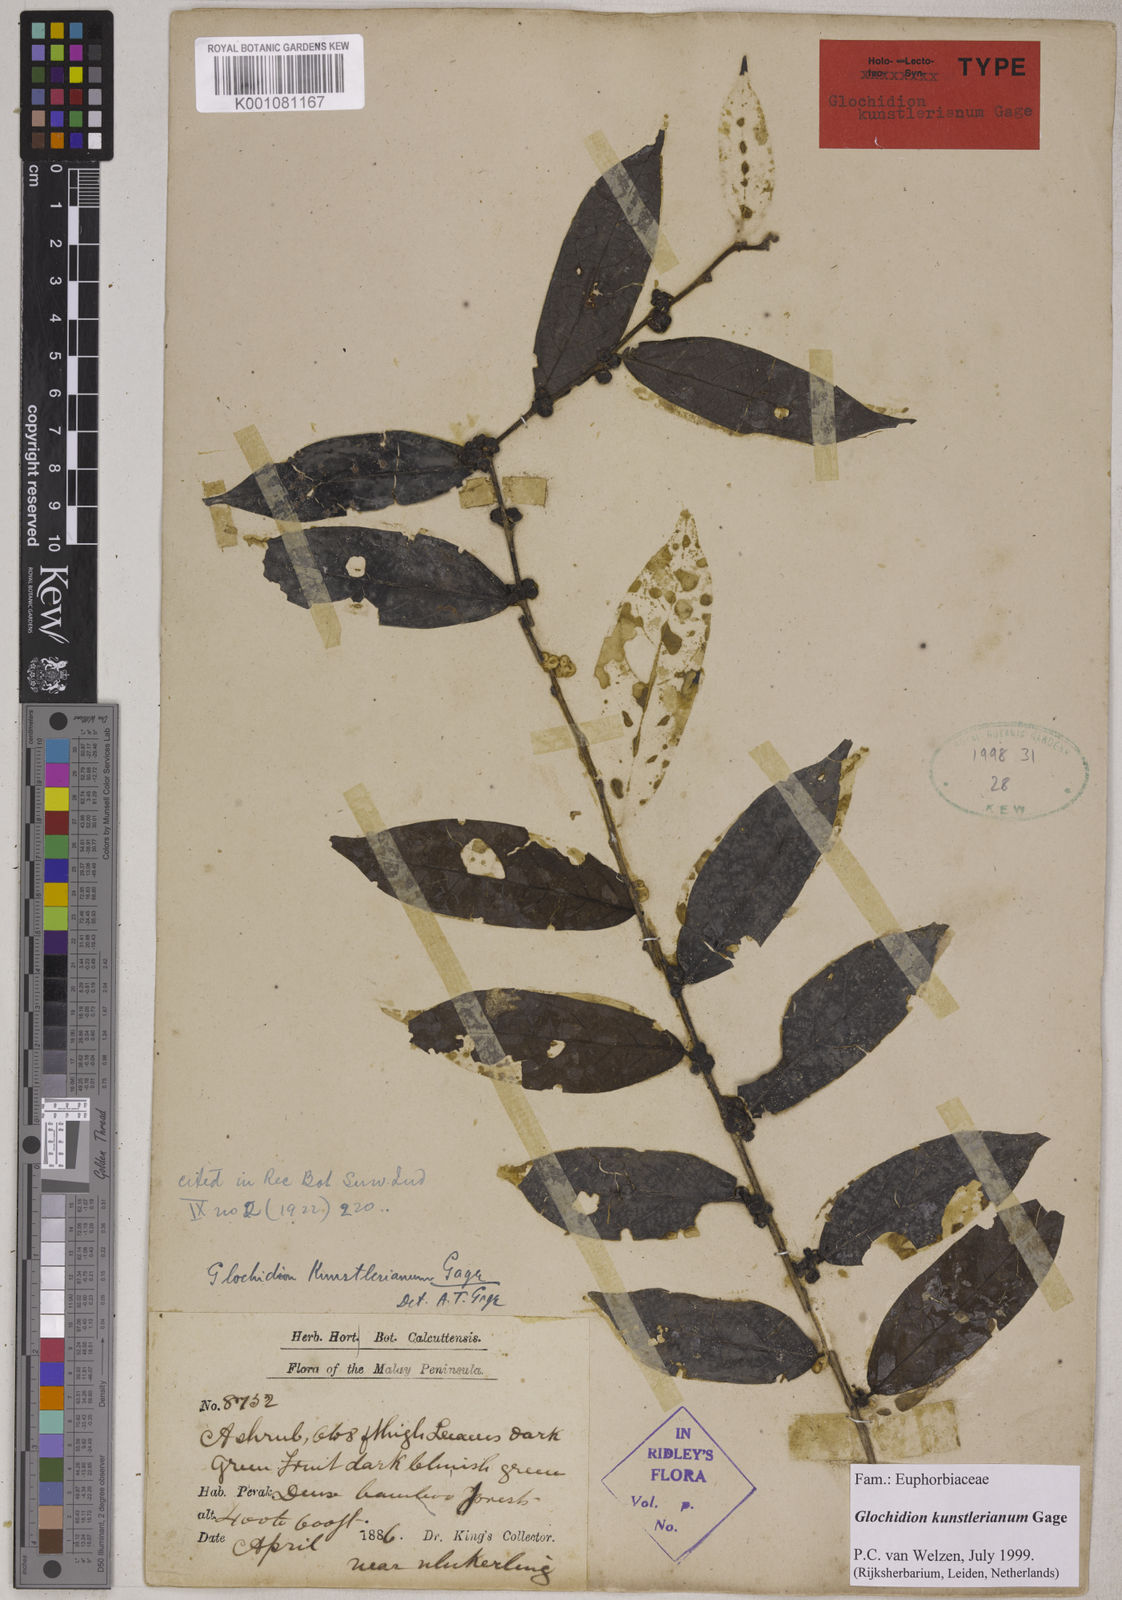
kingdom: Plantae
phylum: Tracheophyta
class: Magnoliopsida
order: Malpighiales
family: Phyllanthaceae
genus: Glochidion
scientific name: Glochidion kunstlerianum
